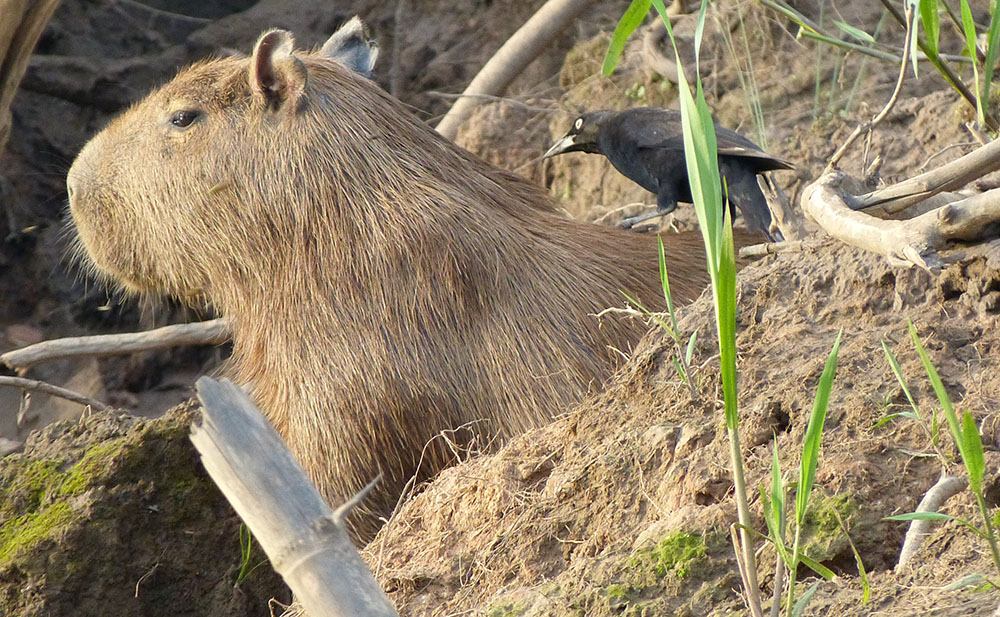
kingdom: Animalia
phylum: Chordata
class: Aves
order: Passeriformes
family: Icteridae
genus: Molothrus
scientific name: Molothrus oryzivorus
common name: Giant cowbird
